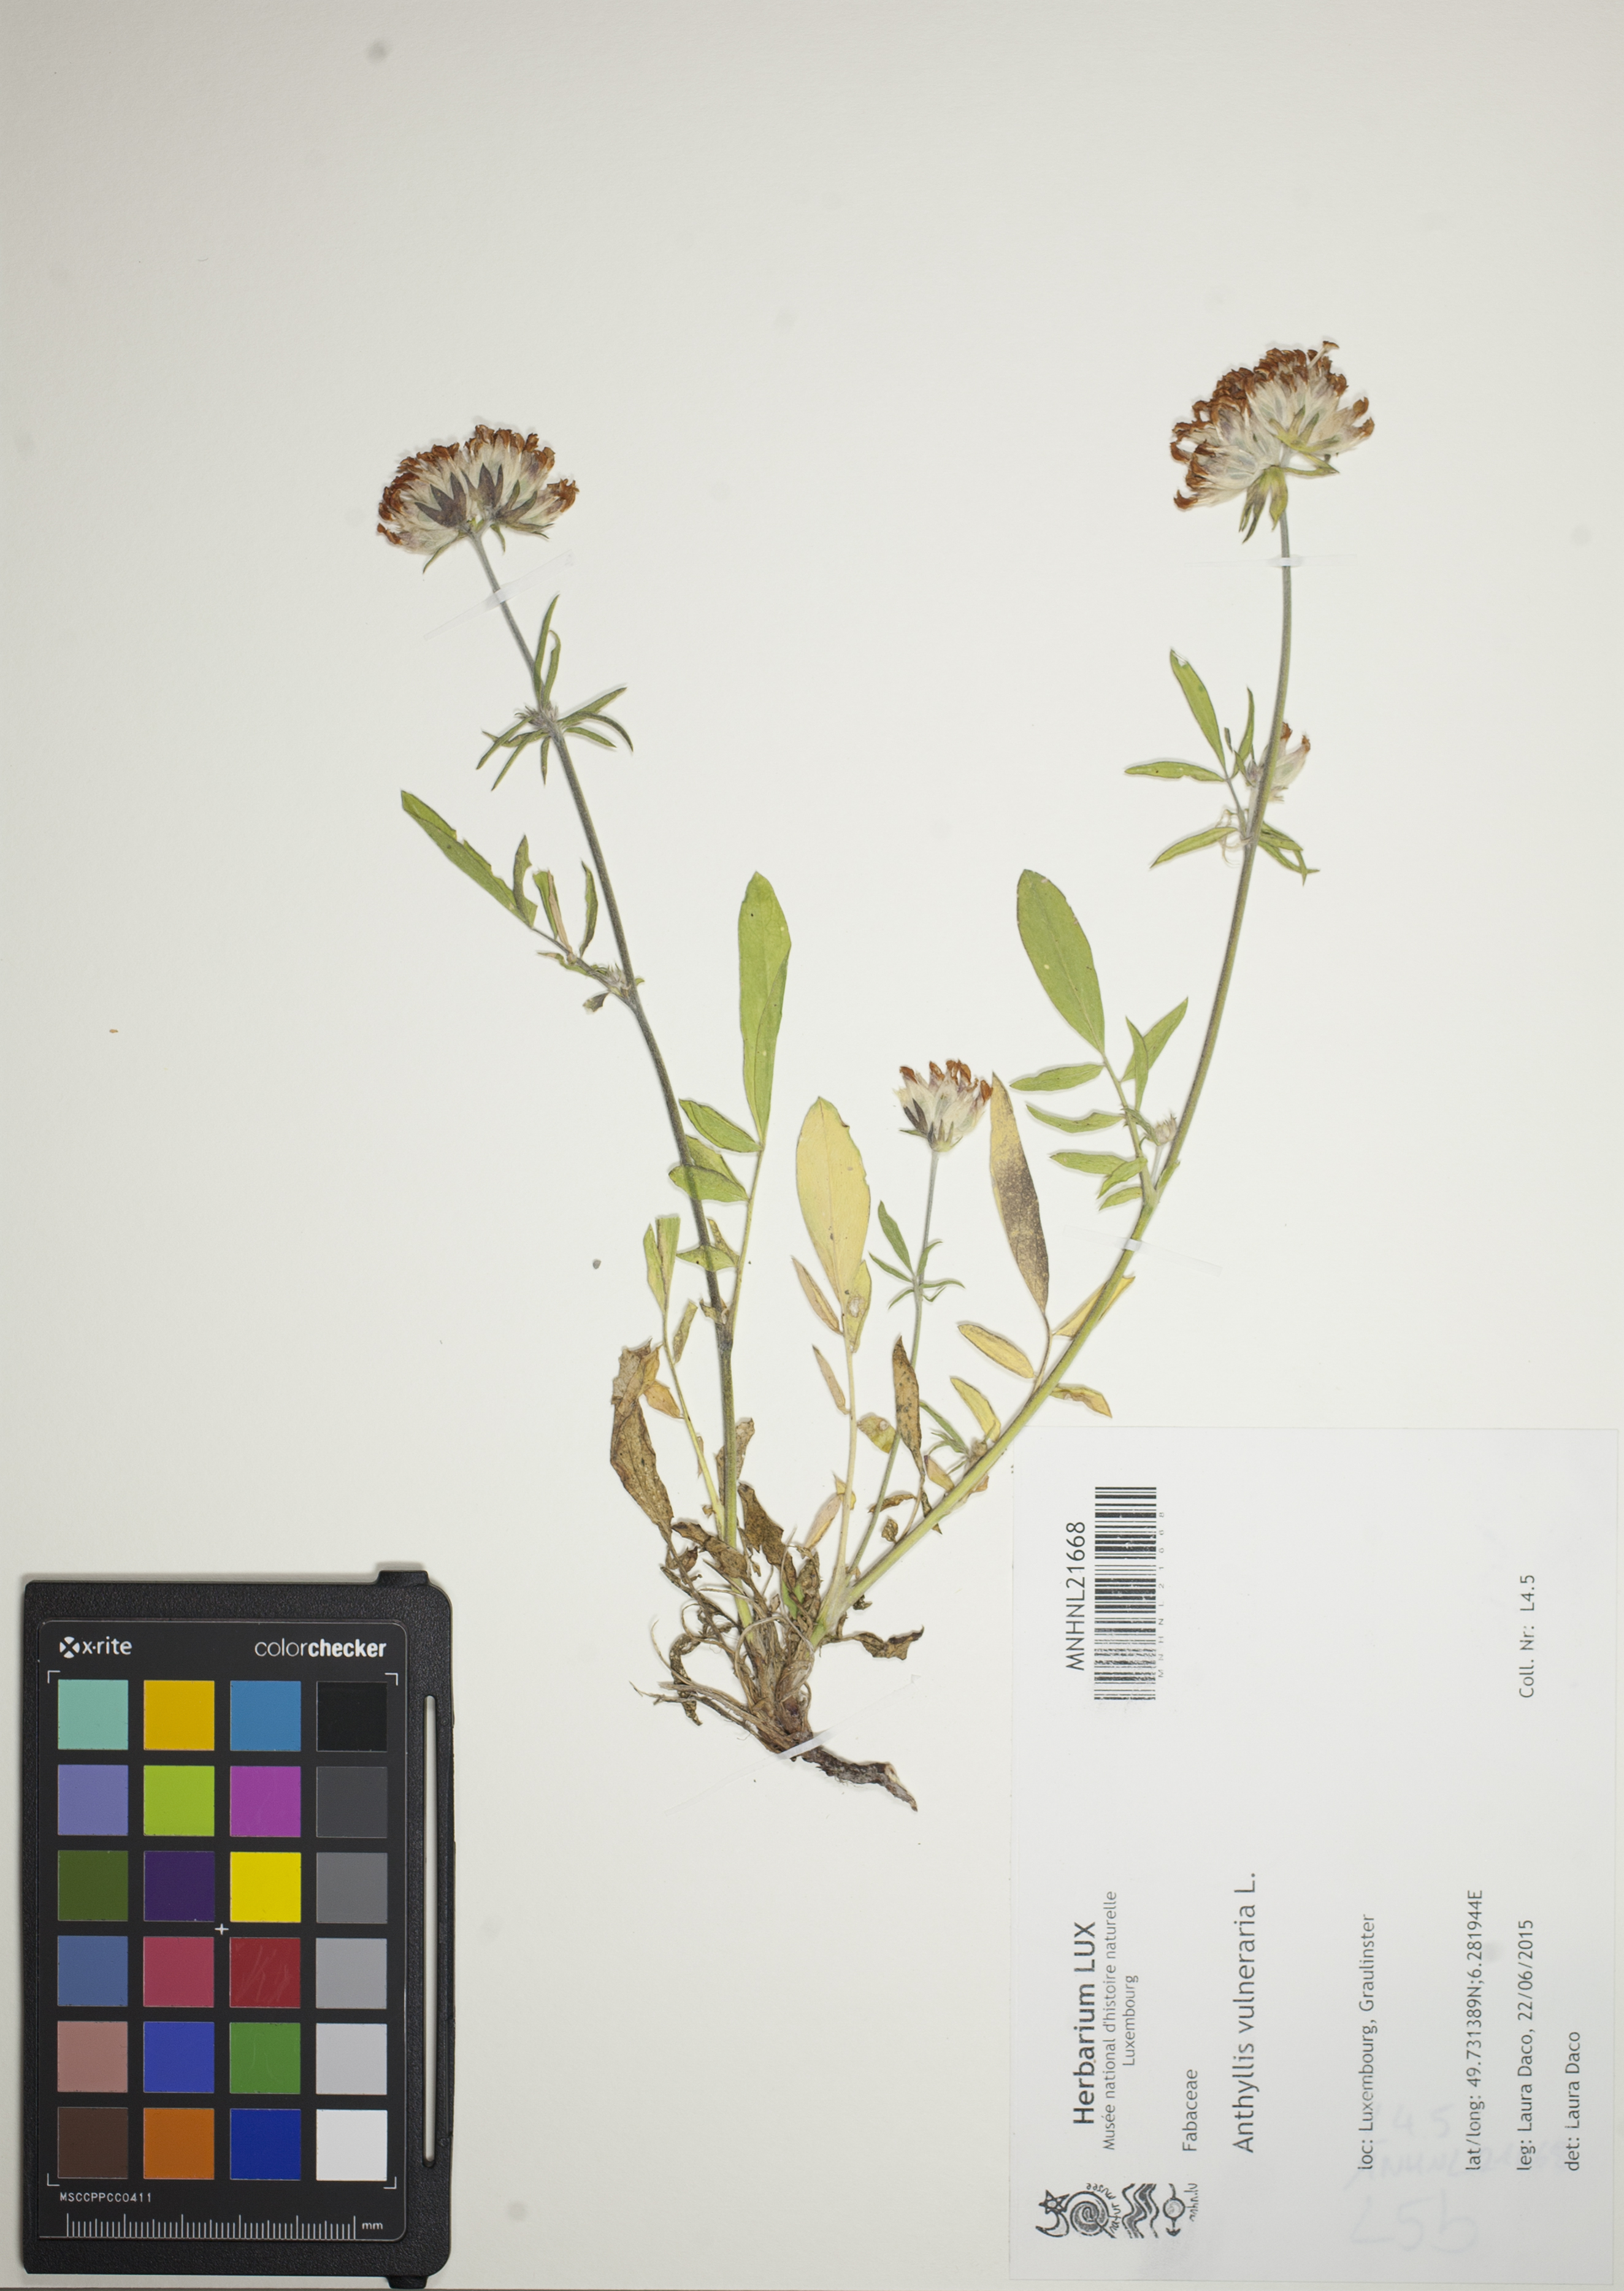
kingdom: Plantae
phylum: Tracheophyta
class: Magnoliopsida
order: Fabales
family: Fabaceae
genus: Anthyllis
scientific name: Anthyllis vulneraria
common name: Kidney vetch
